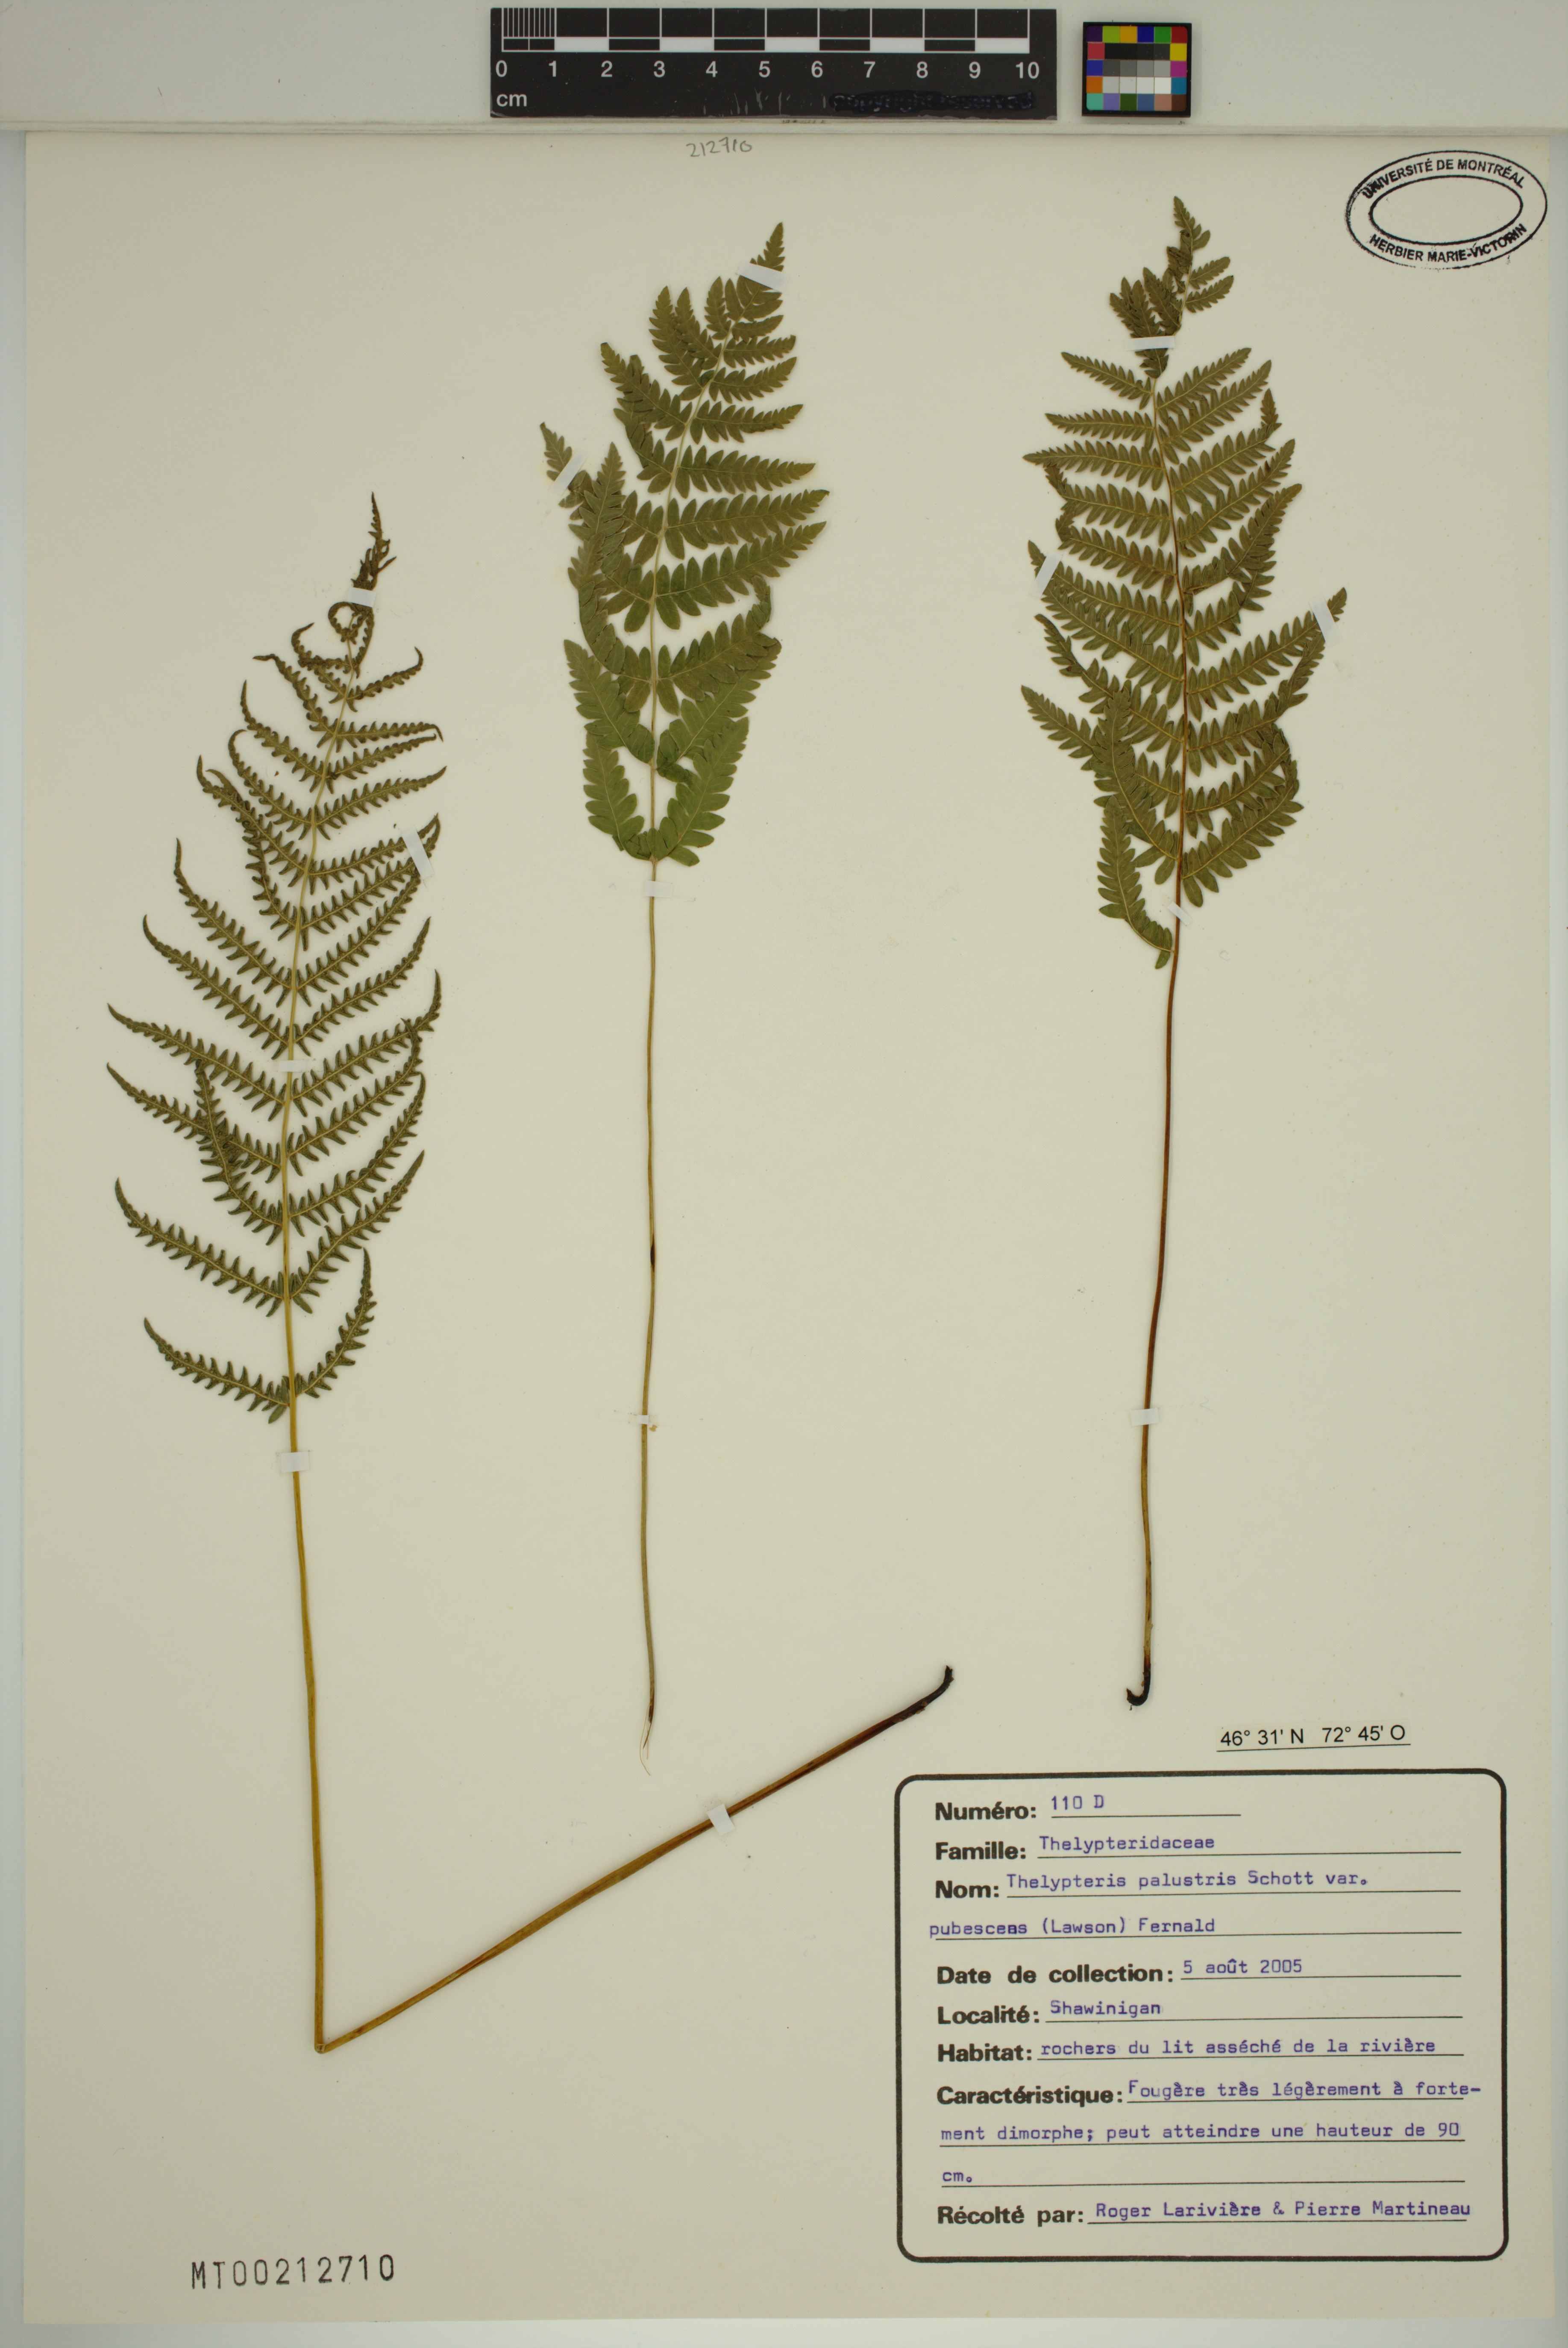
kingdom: Plantae
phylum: Tracheophyta
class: Polypodiopsida
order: Polypodiales
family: Thelypteridaceae
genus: Thelypteris
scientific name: Thelypteris palustris
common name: Marsh fern
